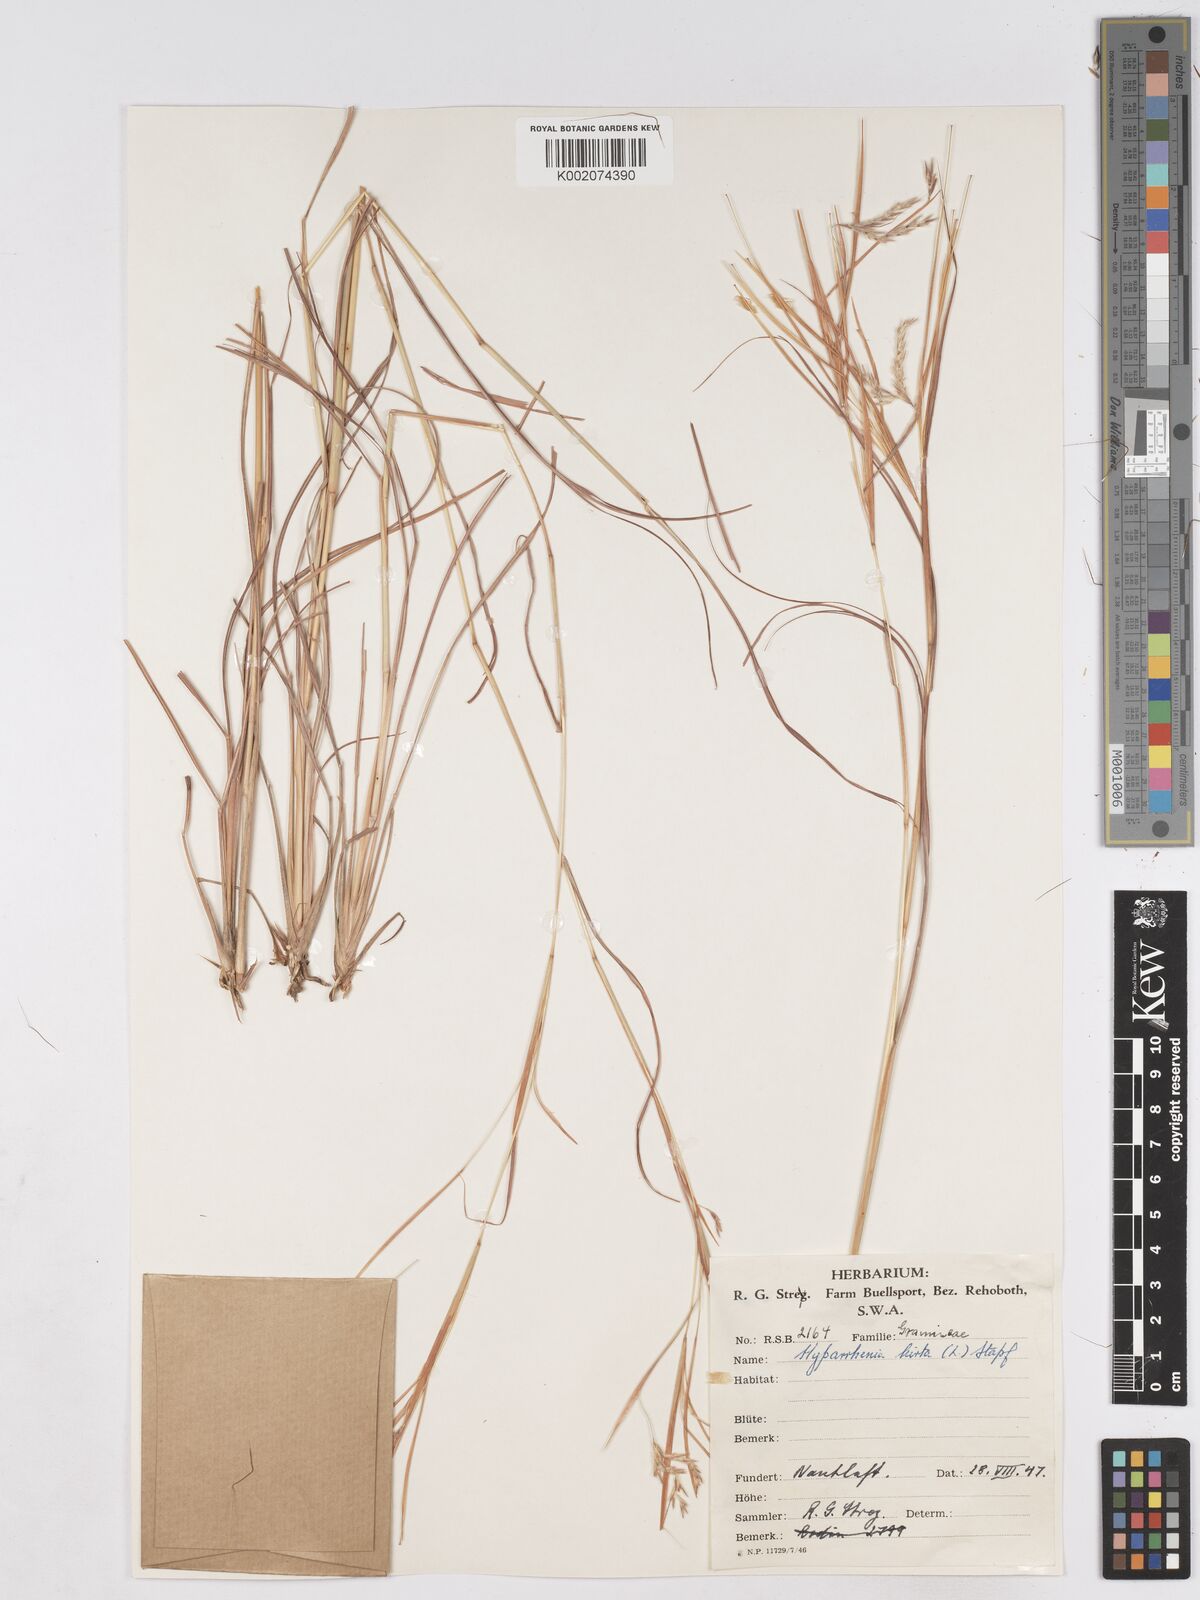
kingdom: Plantae
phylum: Tracheophyta
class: Liliopsida
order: Poales
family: Poaceae
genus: Hyparrhenia
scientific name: Hyparrhenia hirta
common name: Thatching grass
